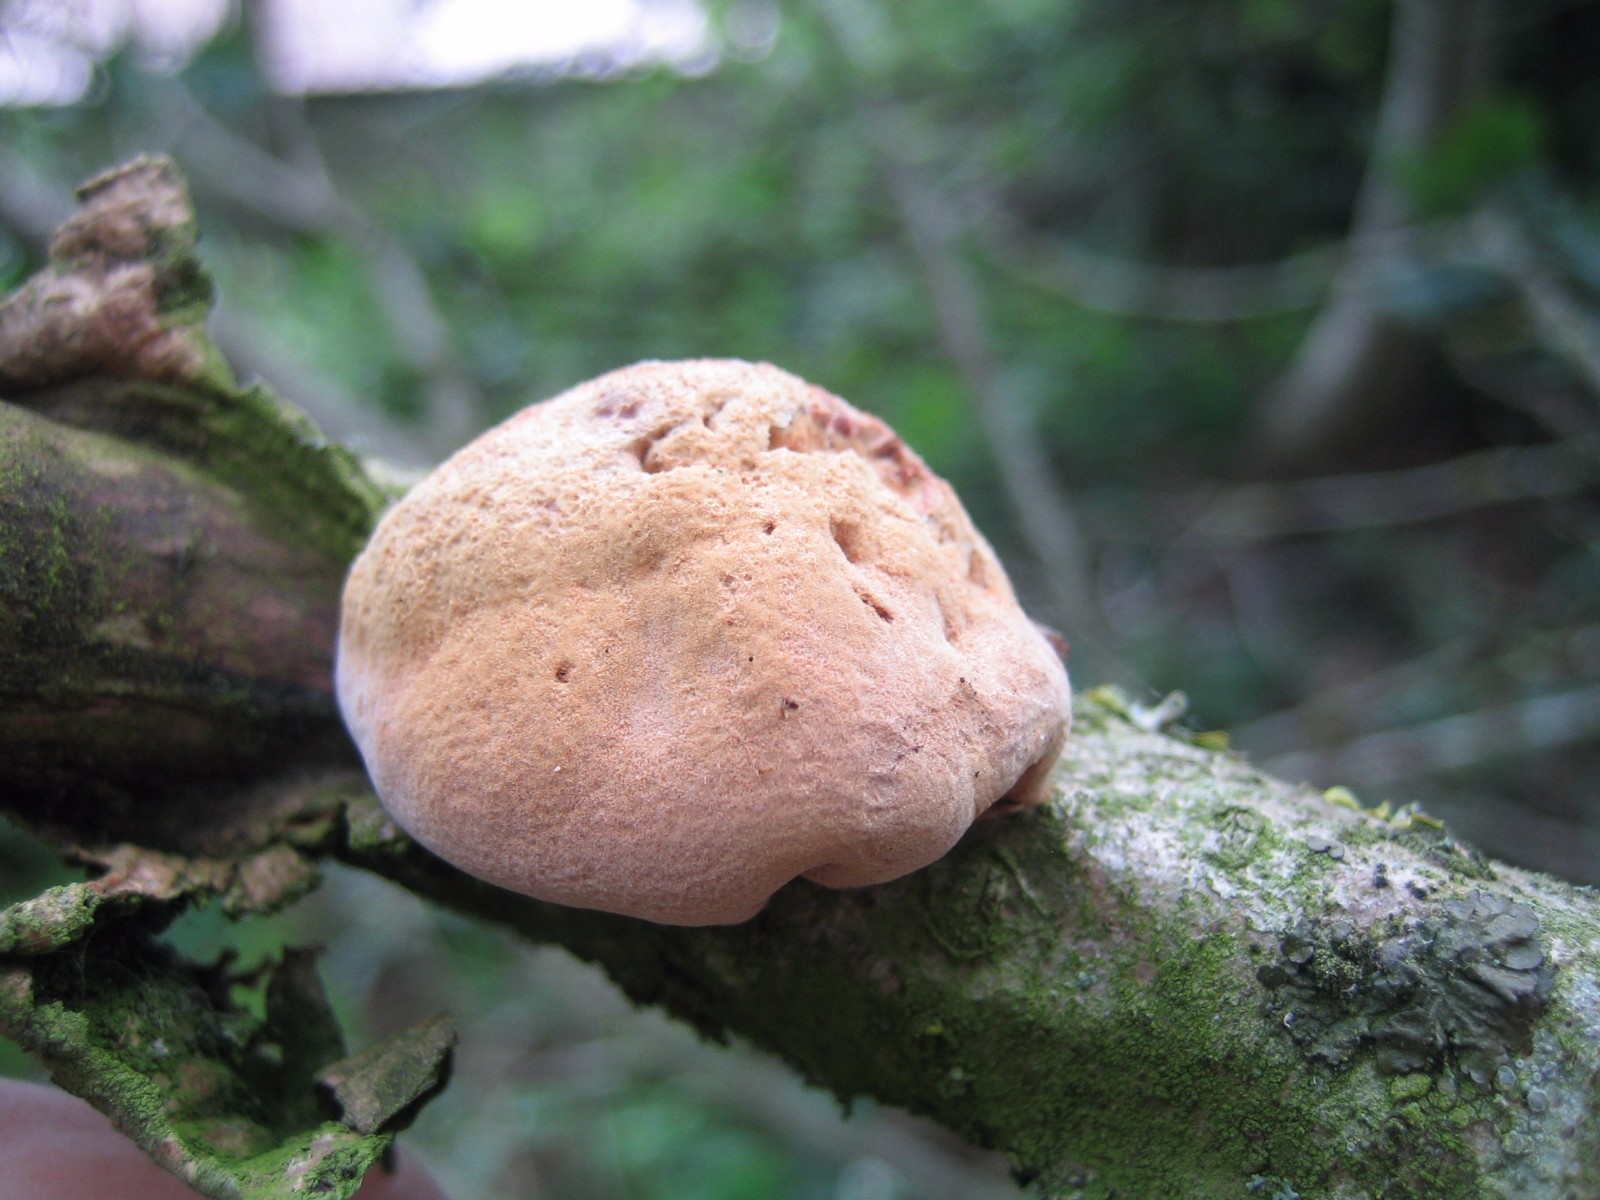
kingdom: Fungi
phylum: Basidiomycota
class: Agaricomycetes
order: Polyporales
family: Phanerochaetaceae
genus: Hapalopilus
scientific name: Hapalopilus rutilans
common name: rødlig okkerporesvamp
